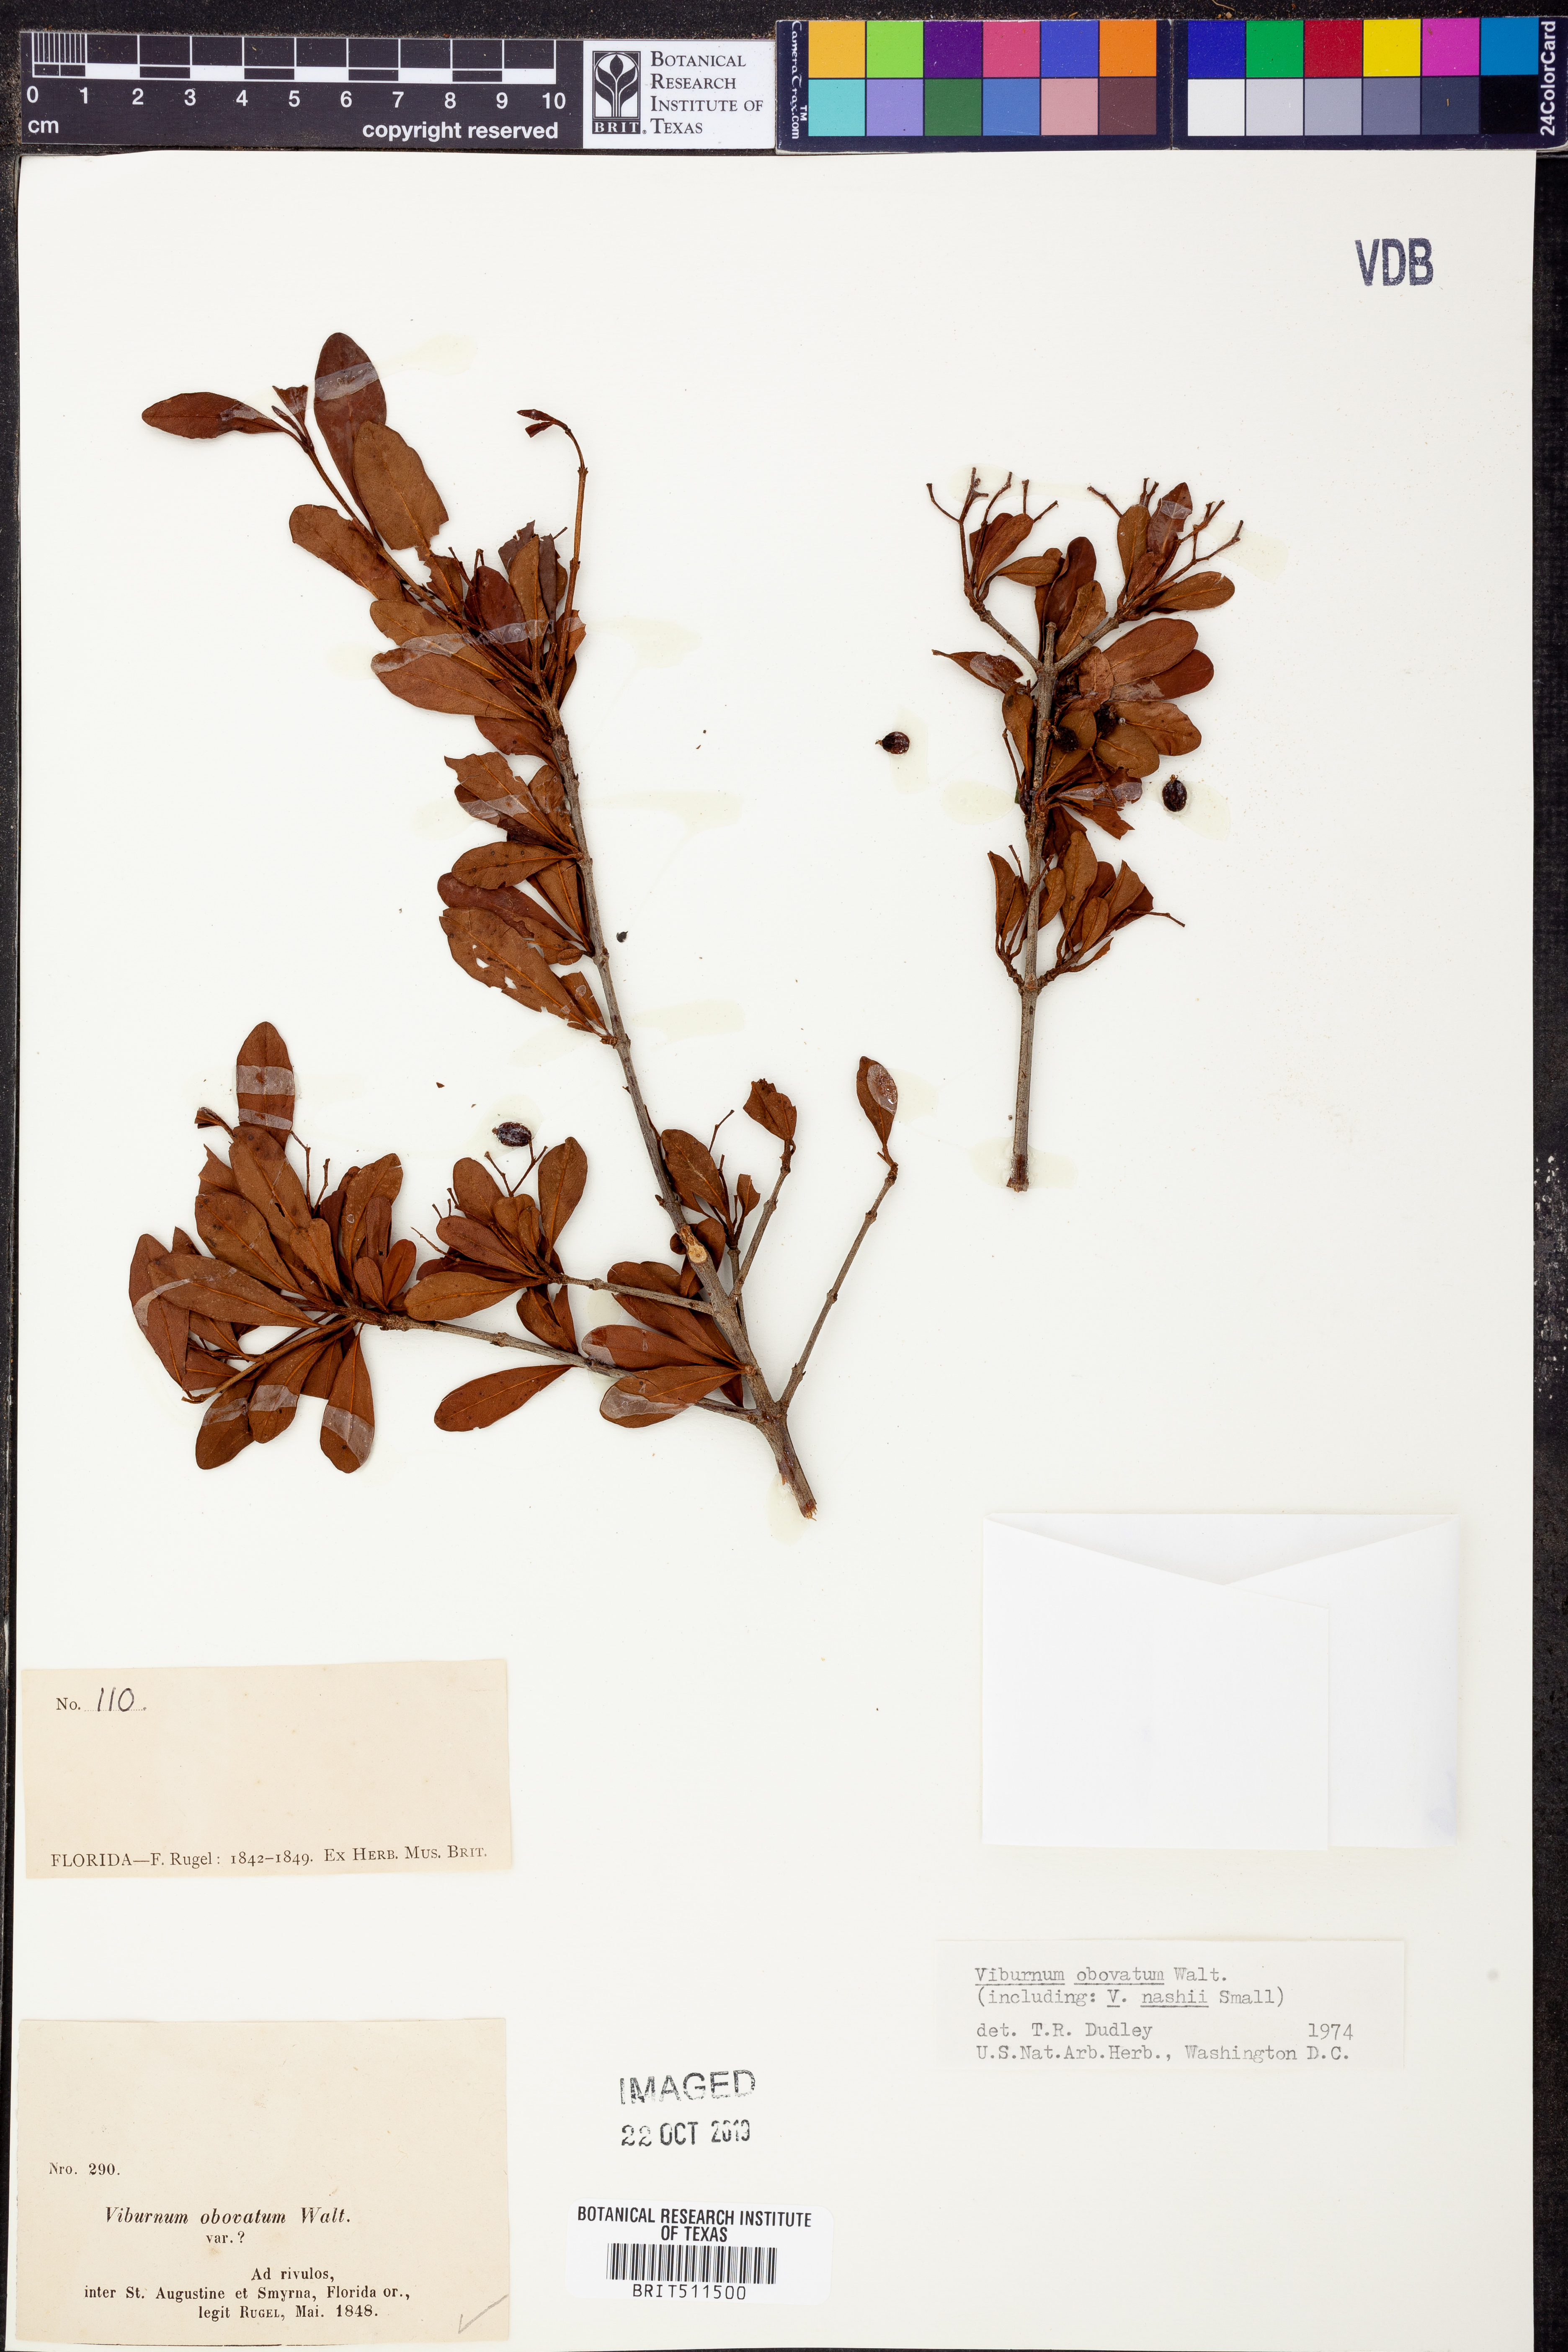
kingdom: Plantae
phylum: Tracheophyta
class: Magnoliopsida
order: Dipsacales
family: Viburnaceae
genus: Viburnum
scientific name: Viburnum obovatum
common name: Walter's viburnum
